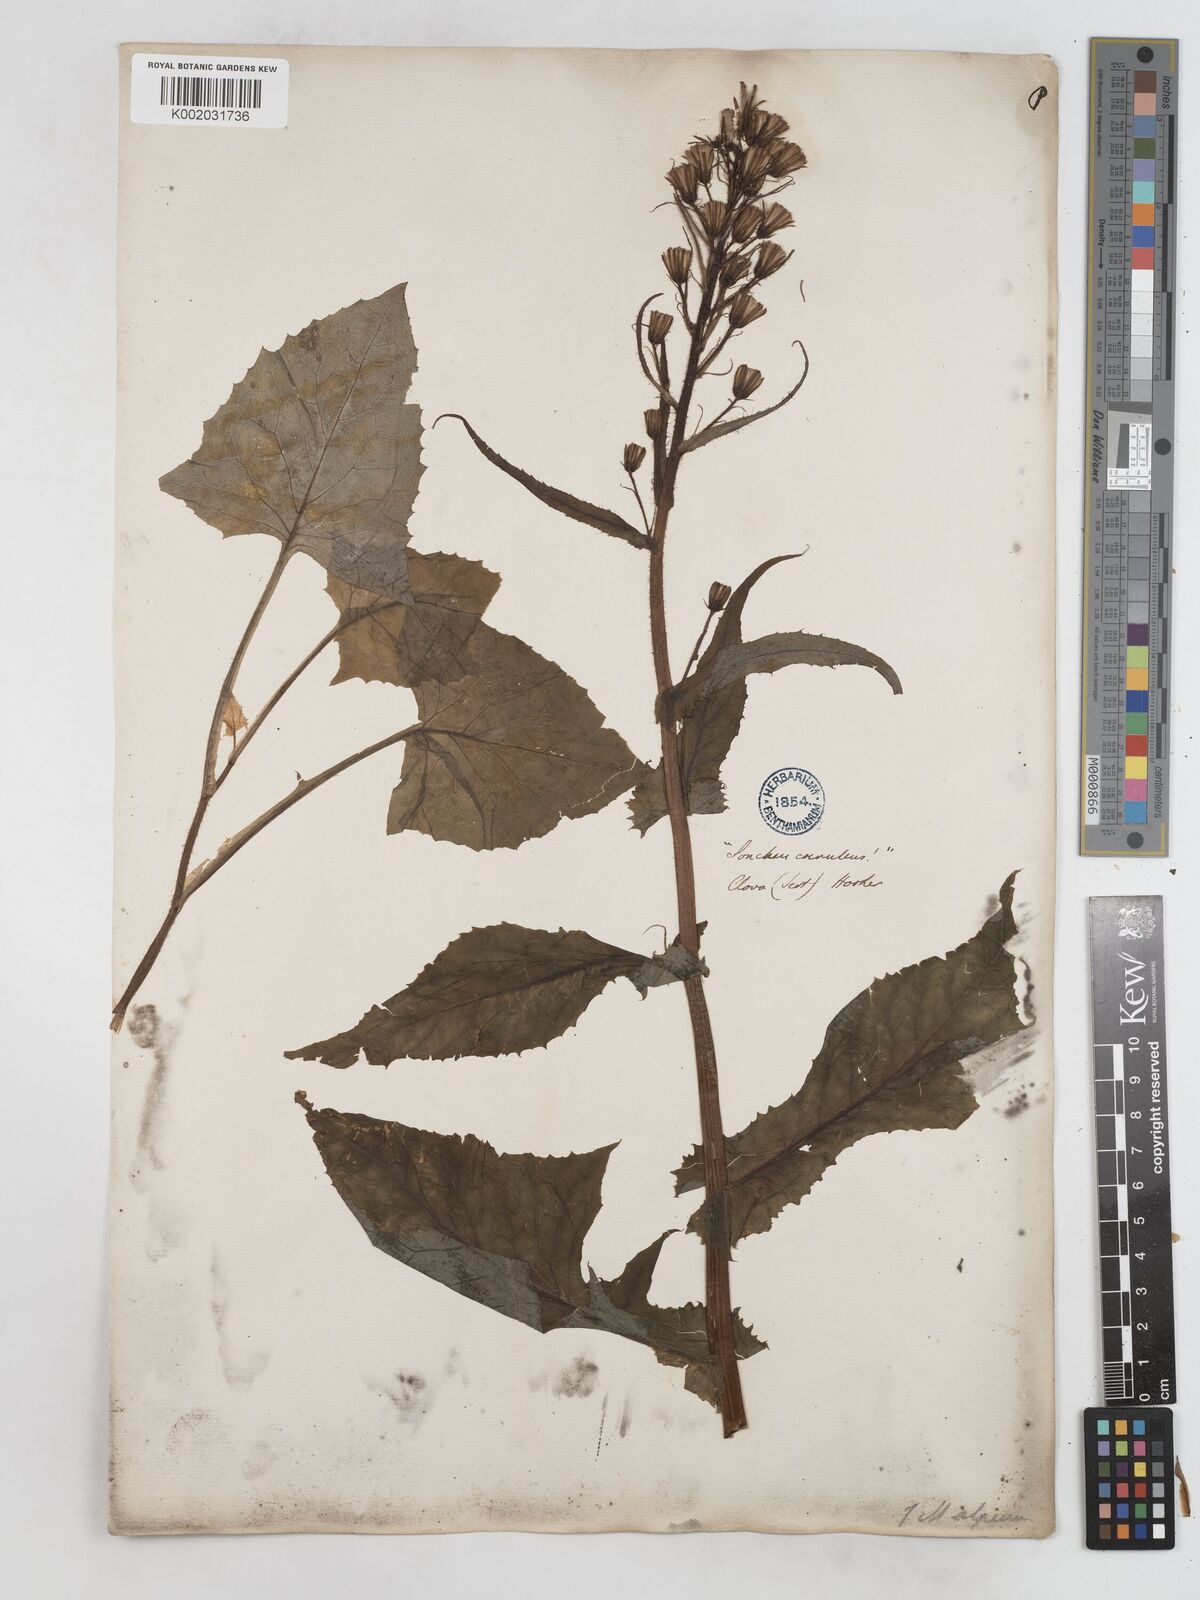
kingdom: Plantae
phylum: Tracheophyta
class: Magnoliopsida
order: Asterales
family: Asteraceae
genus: Cicerbita
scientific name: Cicerbita alpina
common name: Alpine blue-sow-thistle
